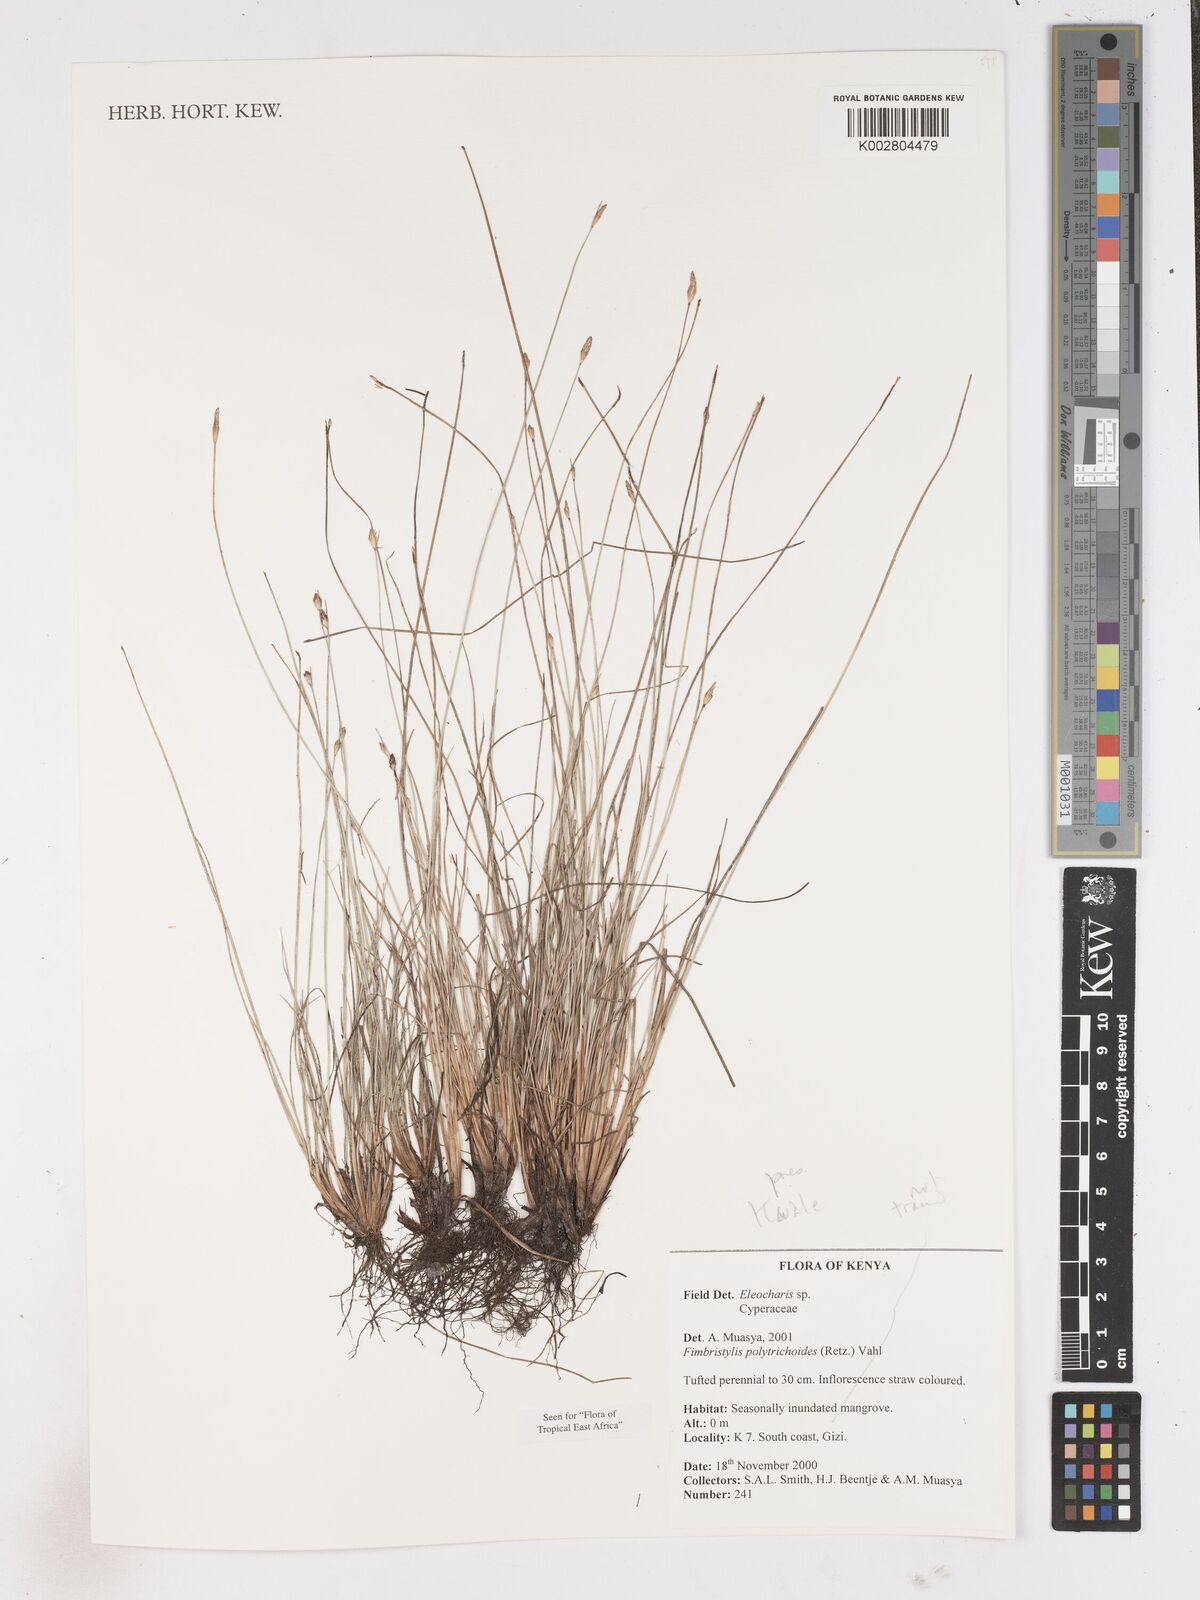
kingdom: Plantae
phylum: Tracheophyta
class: Liliopsida
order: Poales
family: Cyperaceae
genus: Fimbristylis
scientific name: Fimbristylis polytrichoides
